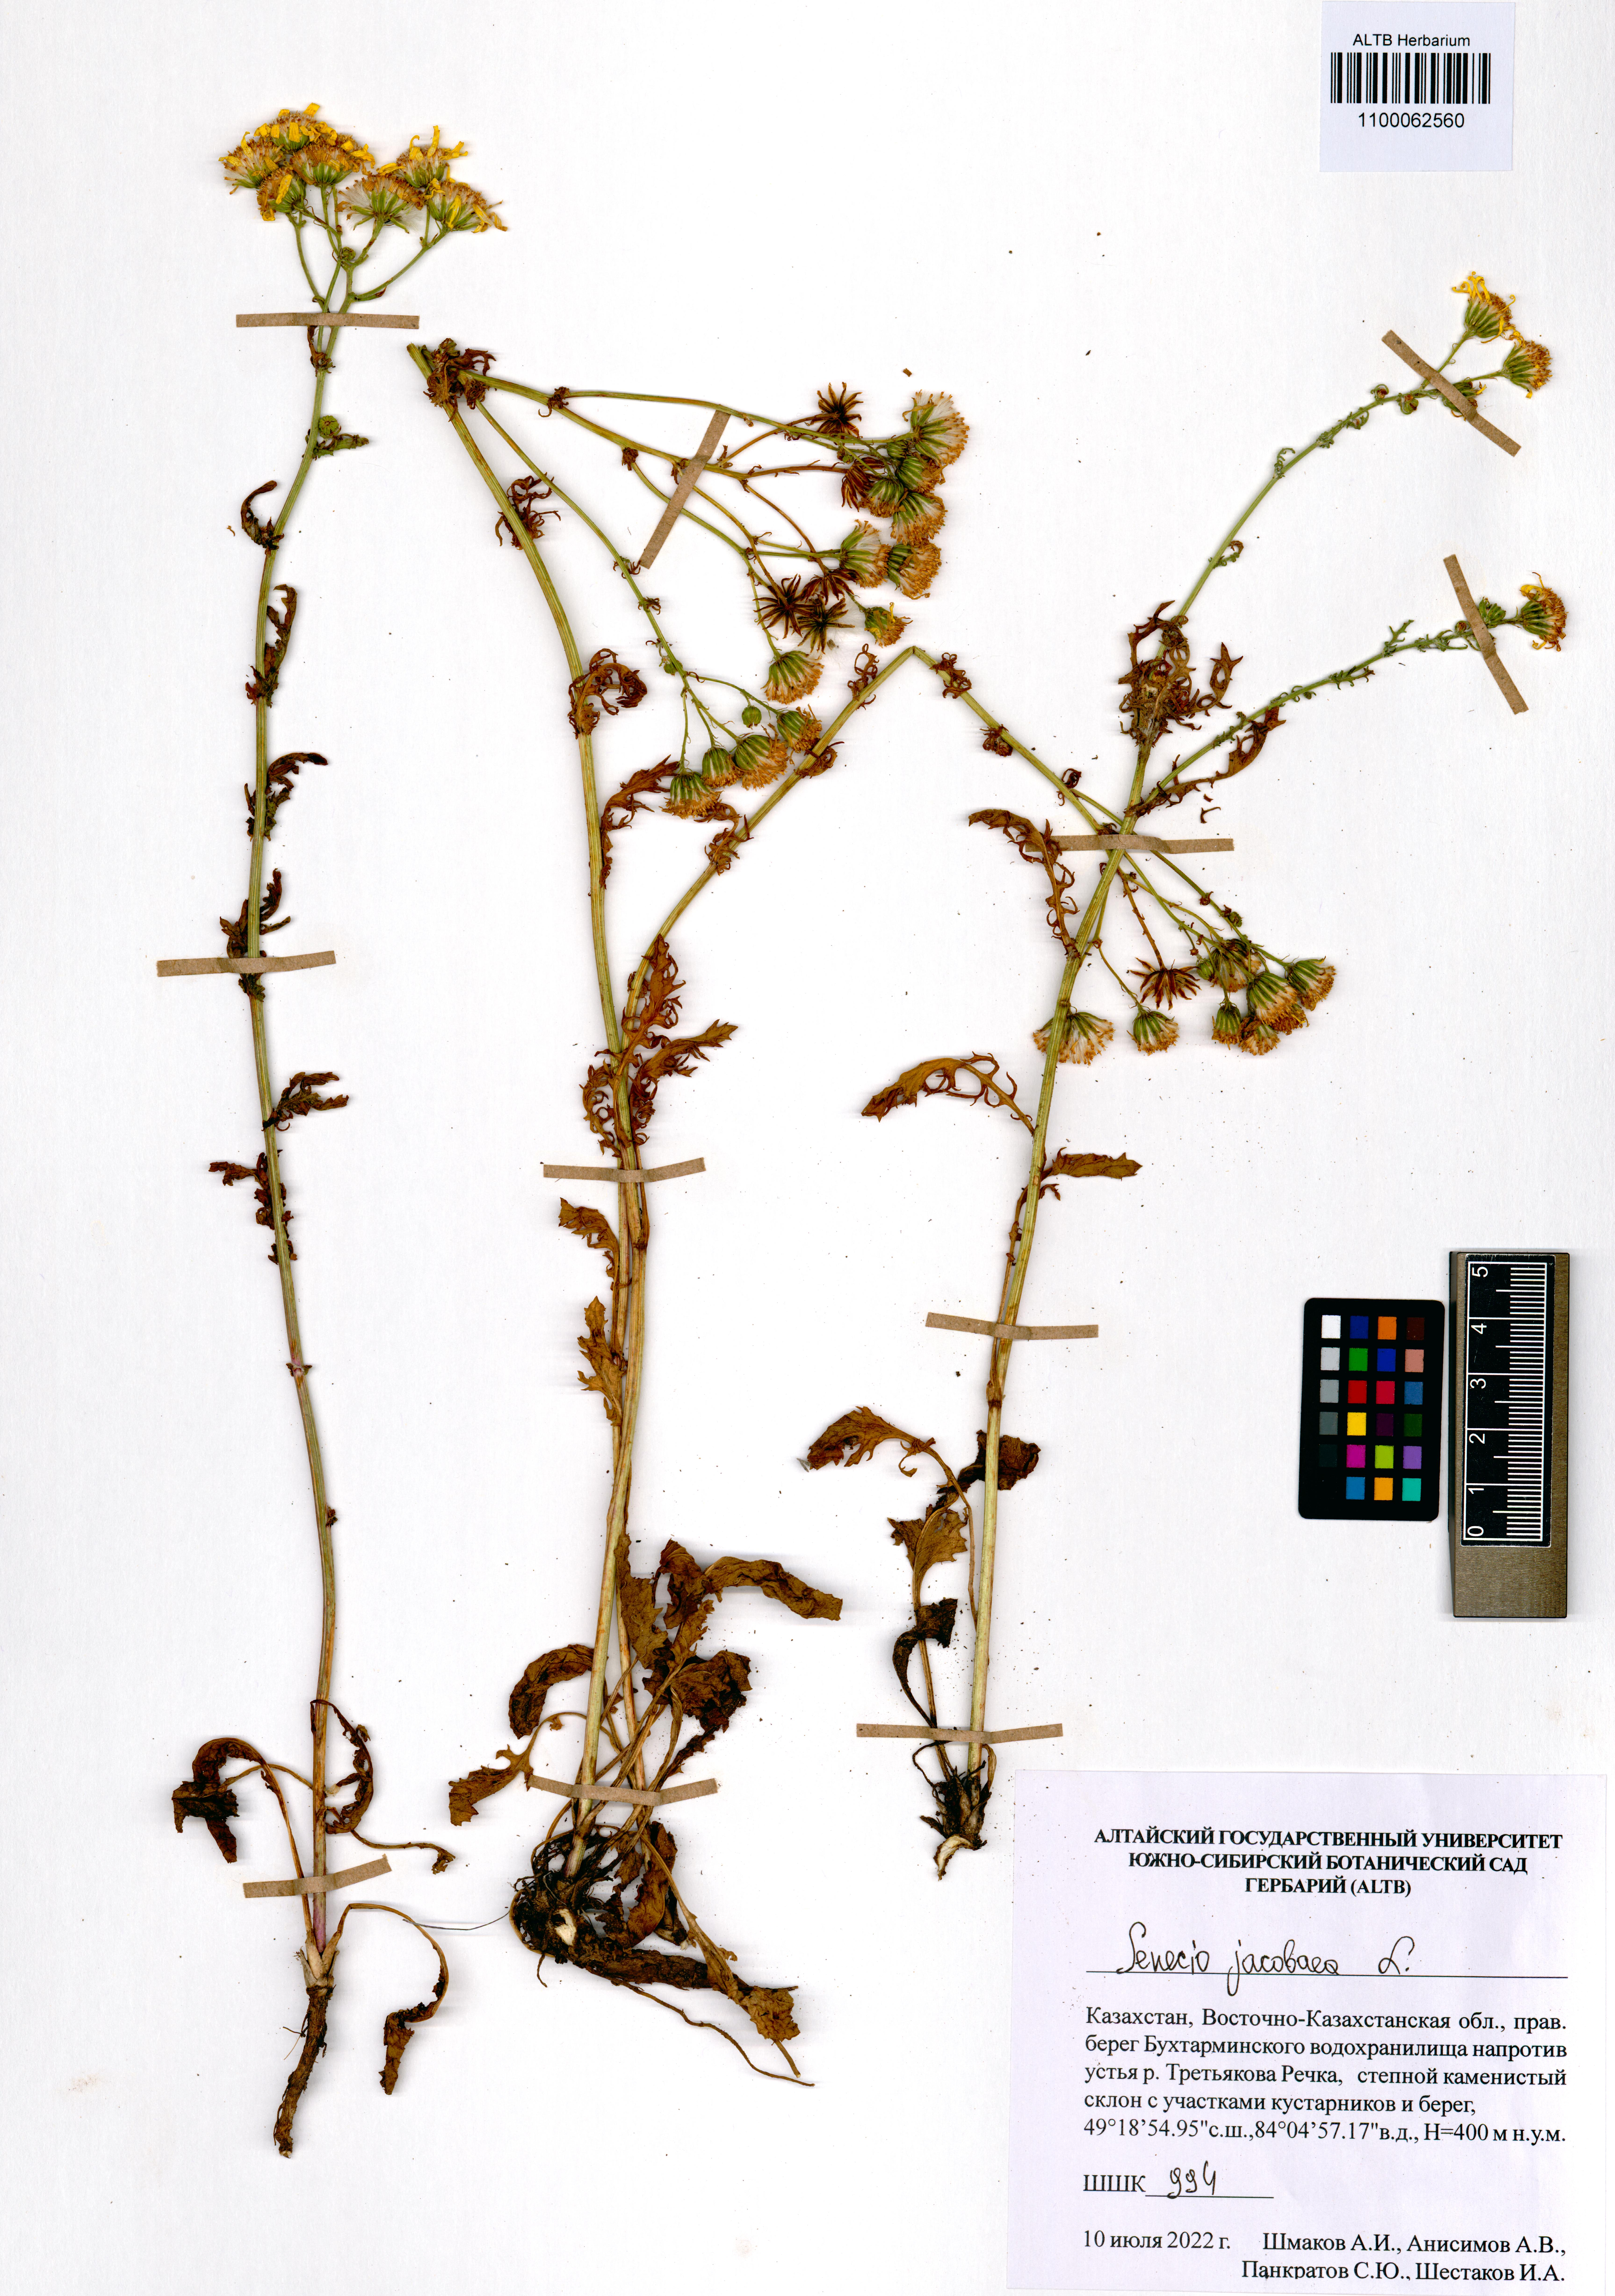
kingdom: Plantae
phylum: Tracheophyta
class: Magnoliopsida
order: Asterales
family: Asteraceae
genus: Jacobaea
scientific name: Jacobaea vulgaris
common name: Stinking willie
